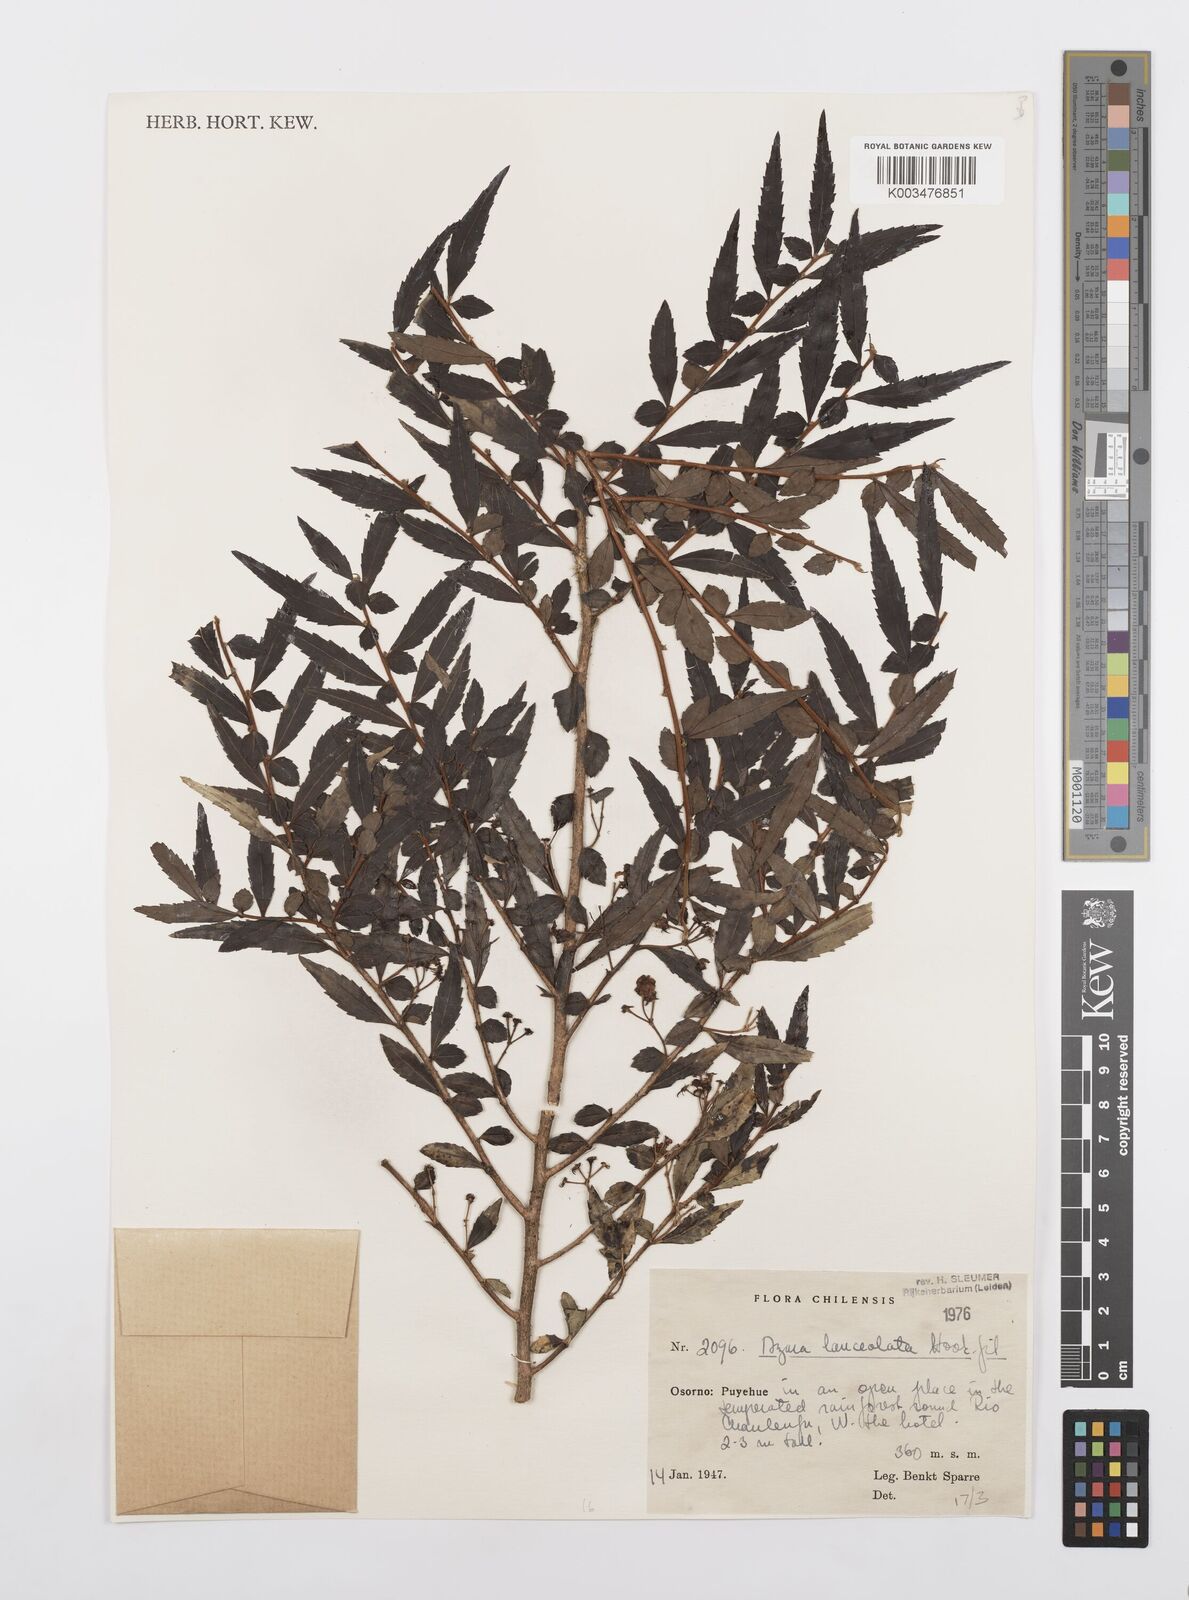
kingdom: Plantae
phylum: Tracheophyta
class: Magnoliopsida
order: Malpighiales
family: Salicaceae
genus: Azara
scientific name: Azara lanceolata
